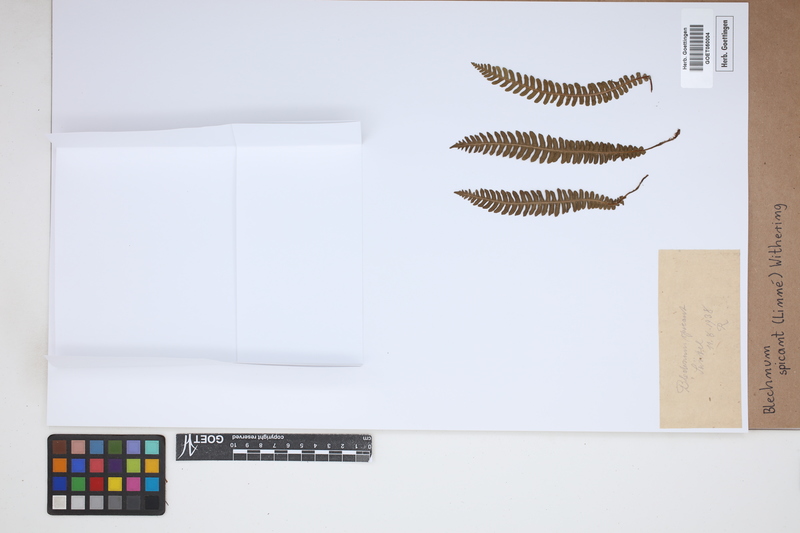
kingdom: Plantae
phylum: Tracheophyta
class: Polypodiopsida
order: Polypodiales
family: Blechnaceae
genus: Struthiopteris
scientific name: Struthiopteris spicant
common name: Deer fern
